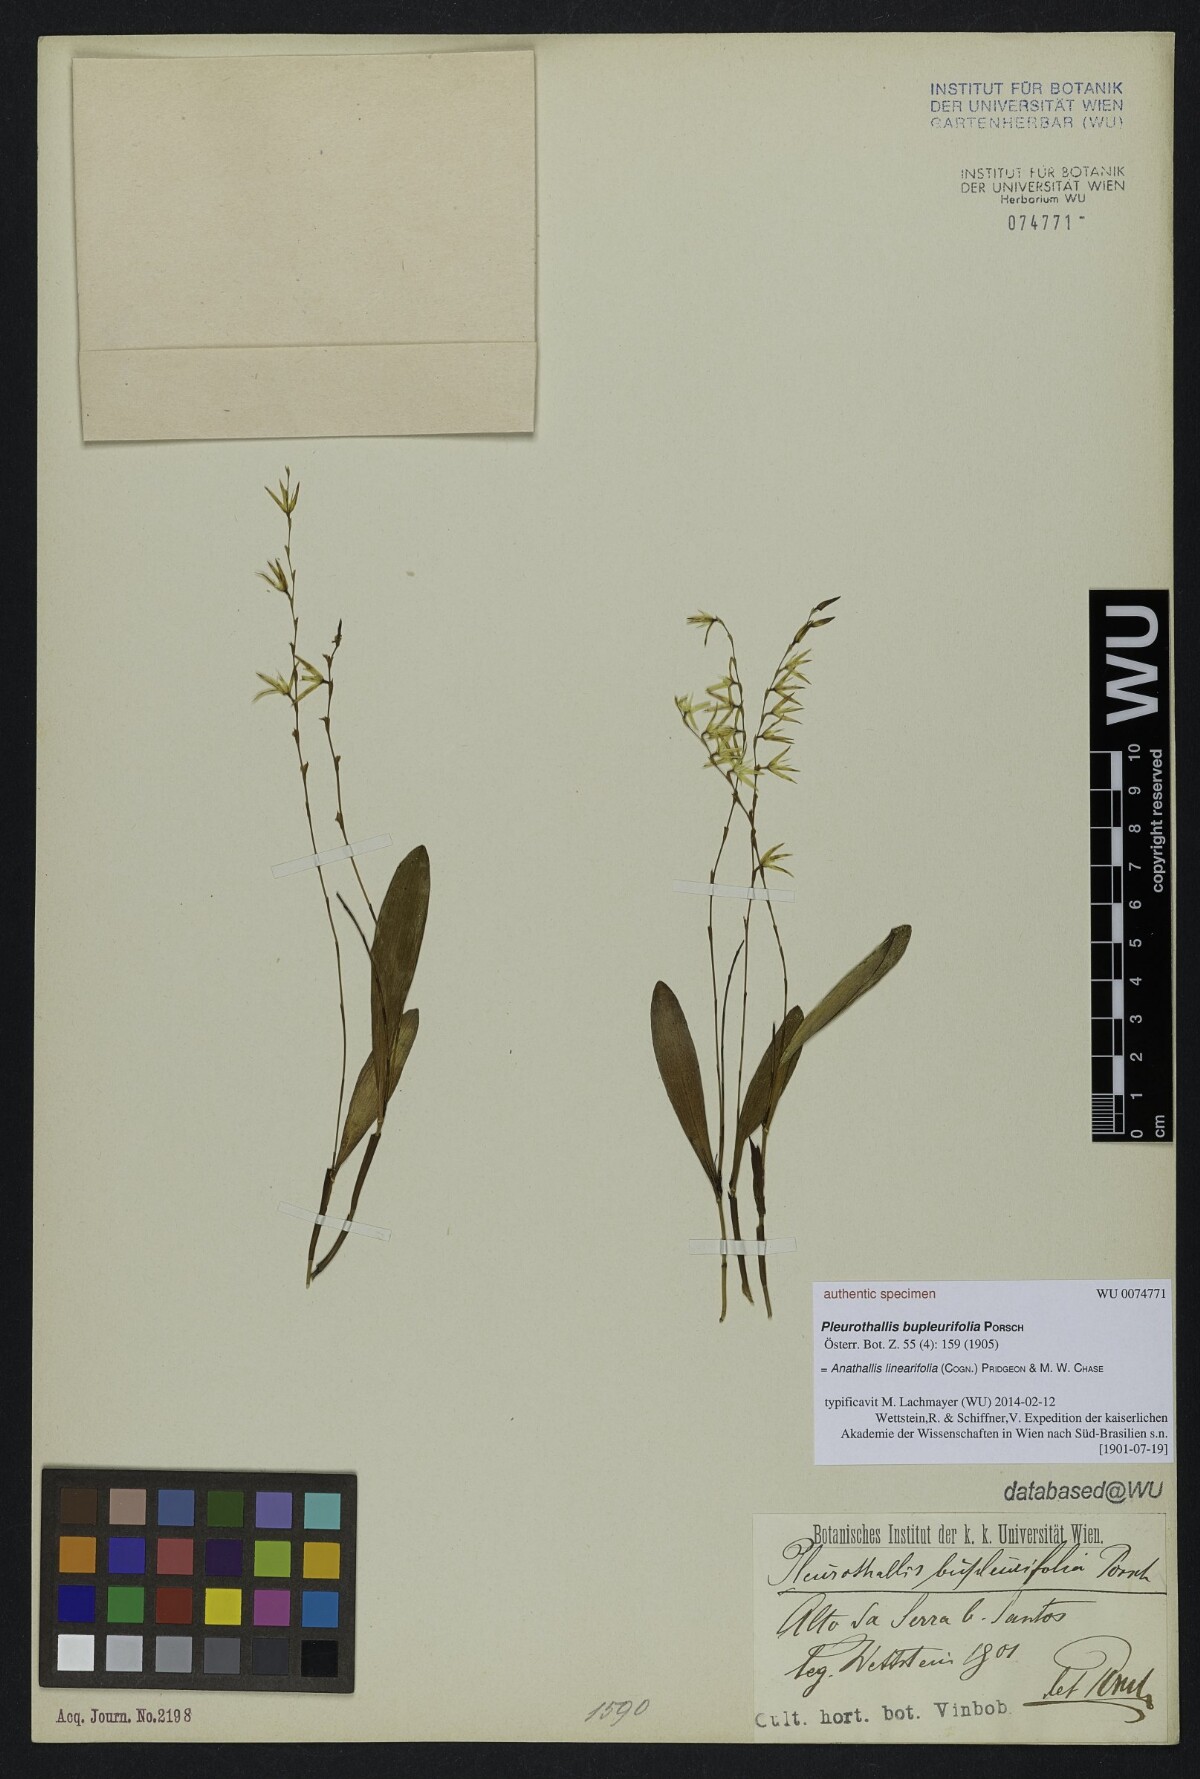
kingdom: Plantae
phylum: Tracheophyta
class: Liliopsida
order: Asparagales
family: Orchidaceae
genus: Anathallis
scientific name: Anathallis linearifolia
